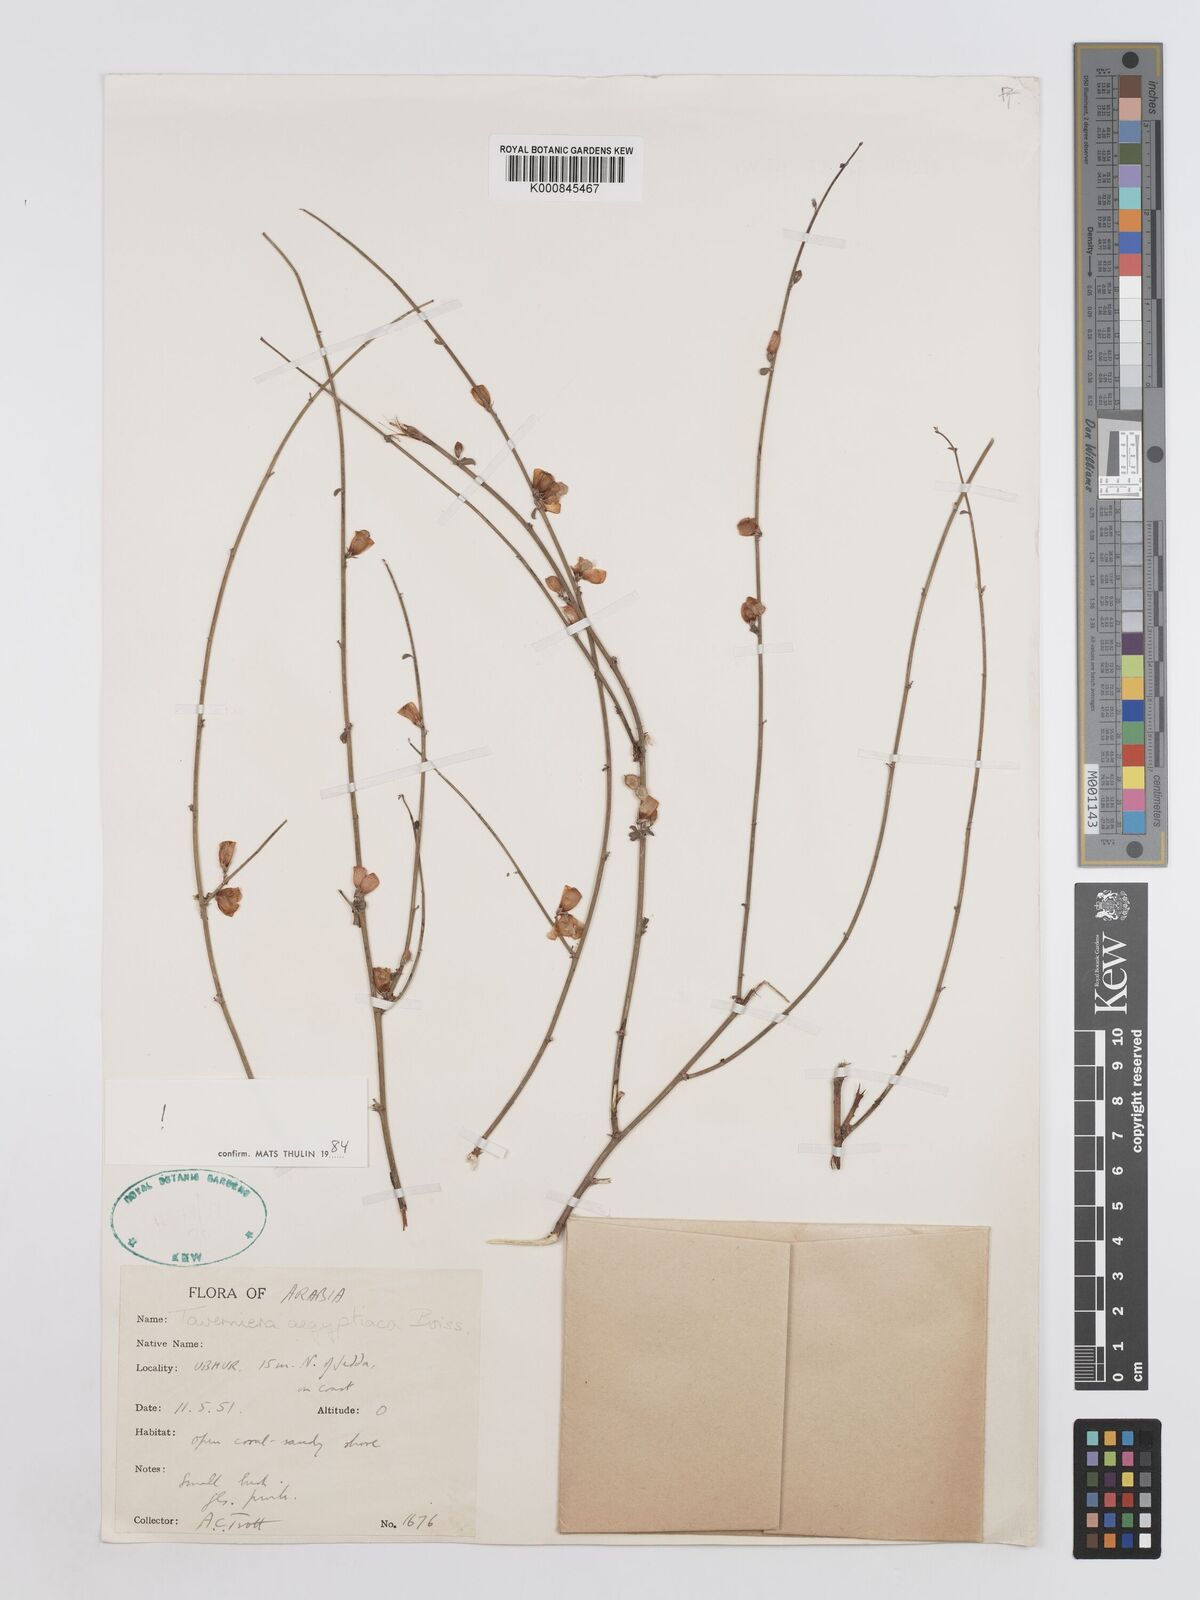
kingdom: Plantae
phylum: Tracheophyta
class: Magnoliopsida
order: Fabales
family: Fabaceae
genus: Taverniera
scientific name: Taverniera aegyptiaca
